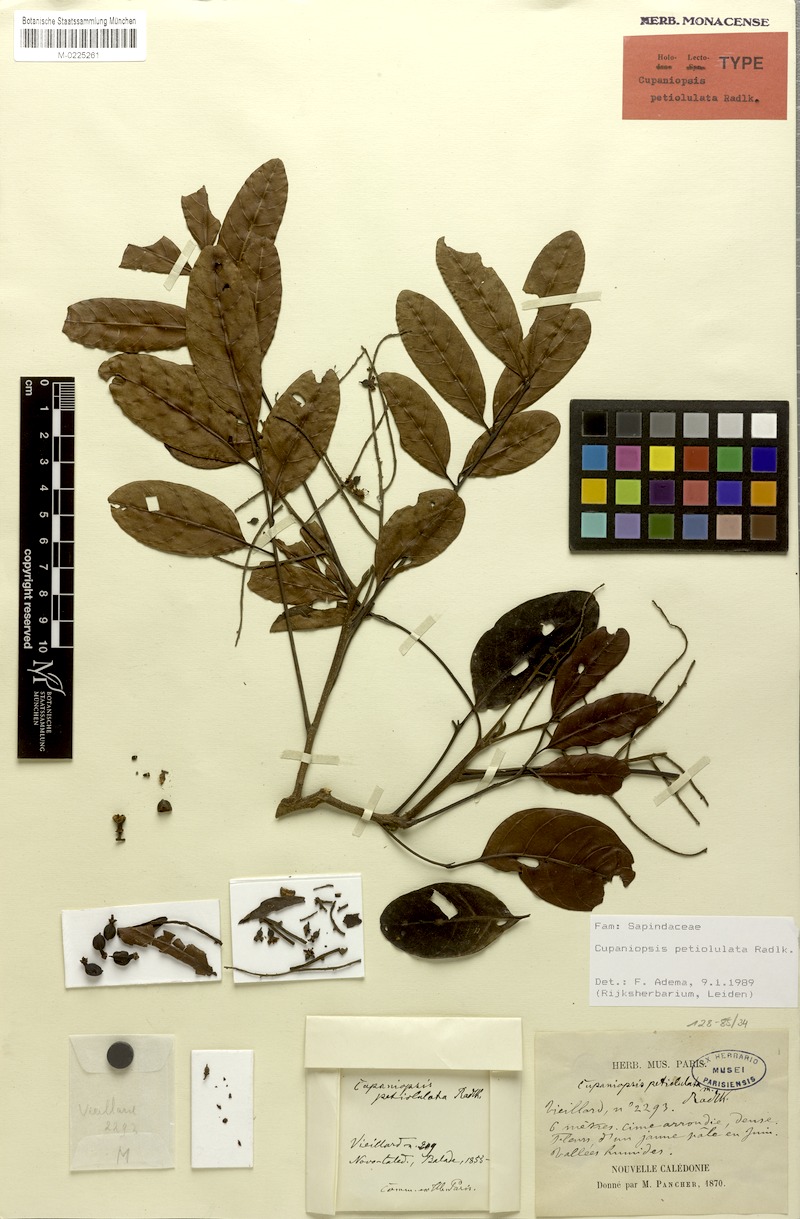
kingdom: Plantae
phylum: Tracheophyta
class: Magnoliopsida
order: Sapindales
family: Sapindaceae
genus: Cupaniopsis
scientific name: Cupaniopsis petiolulata
